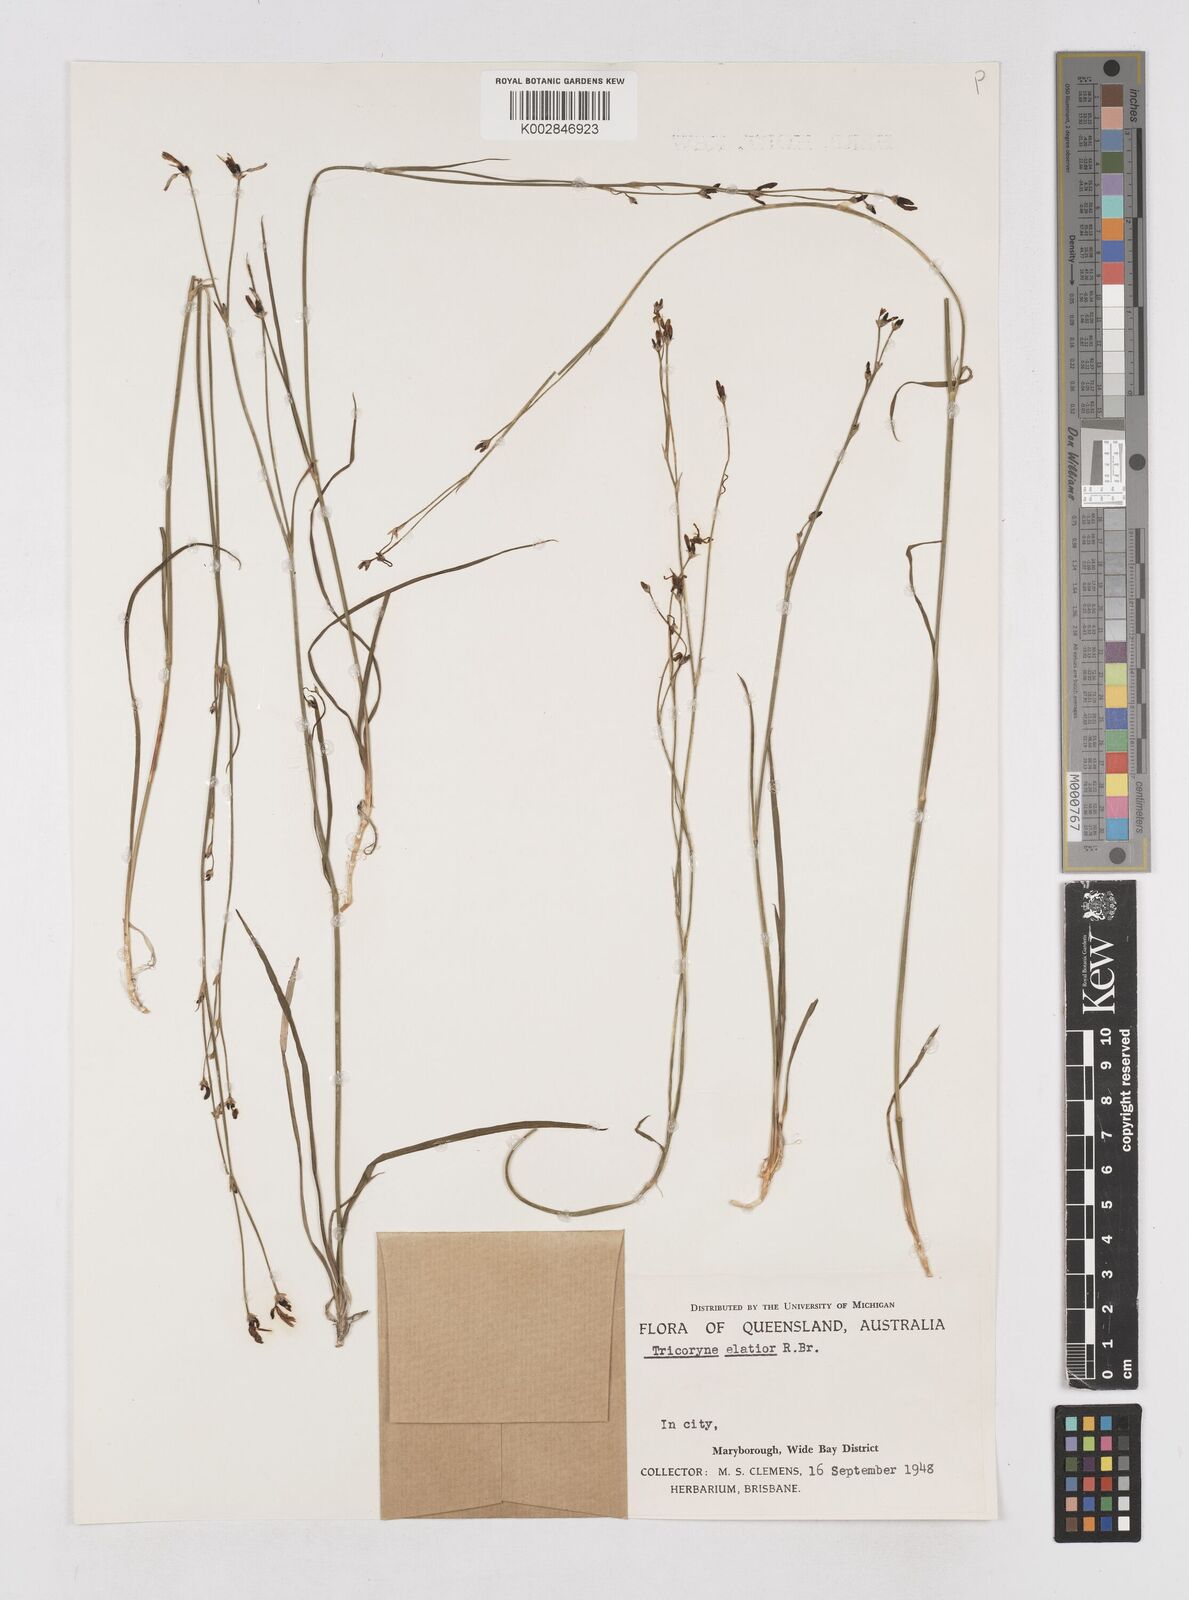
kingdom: Plantae
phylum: Tracheophyta
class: Liliopsida
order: Asparagales
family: Asphodelaceae
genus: Tricoryne
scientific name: Tricoryne elatior
